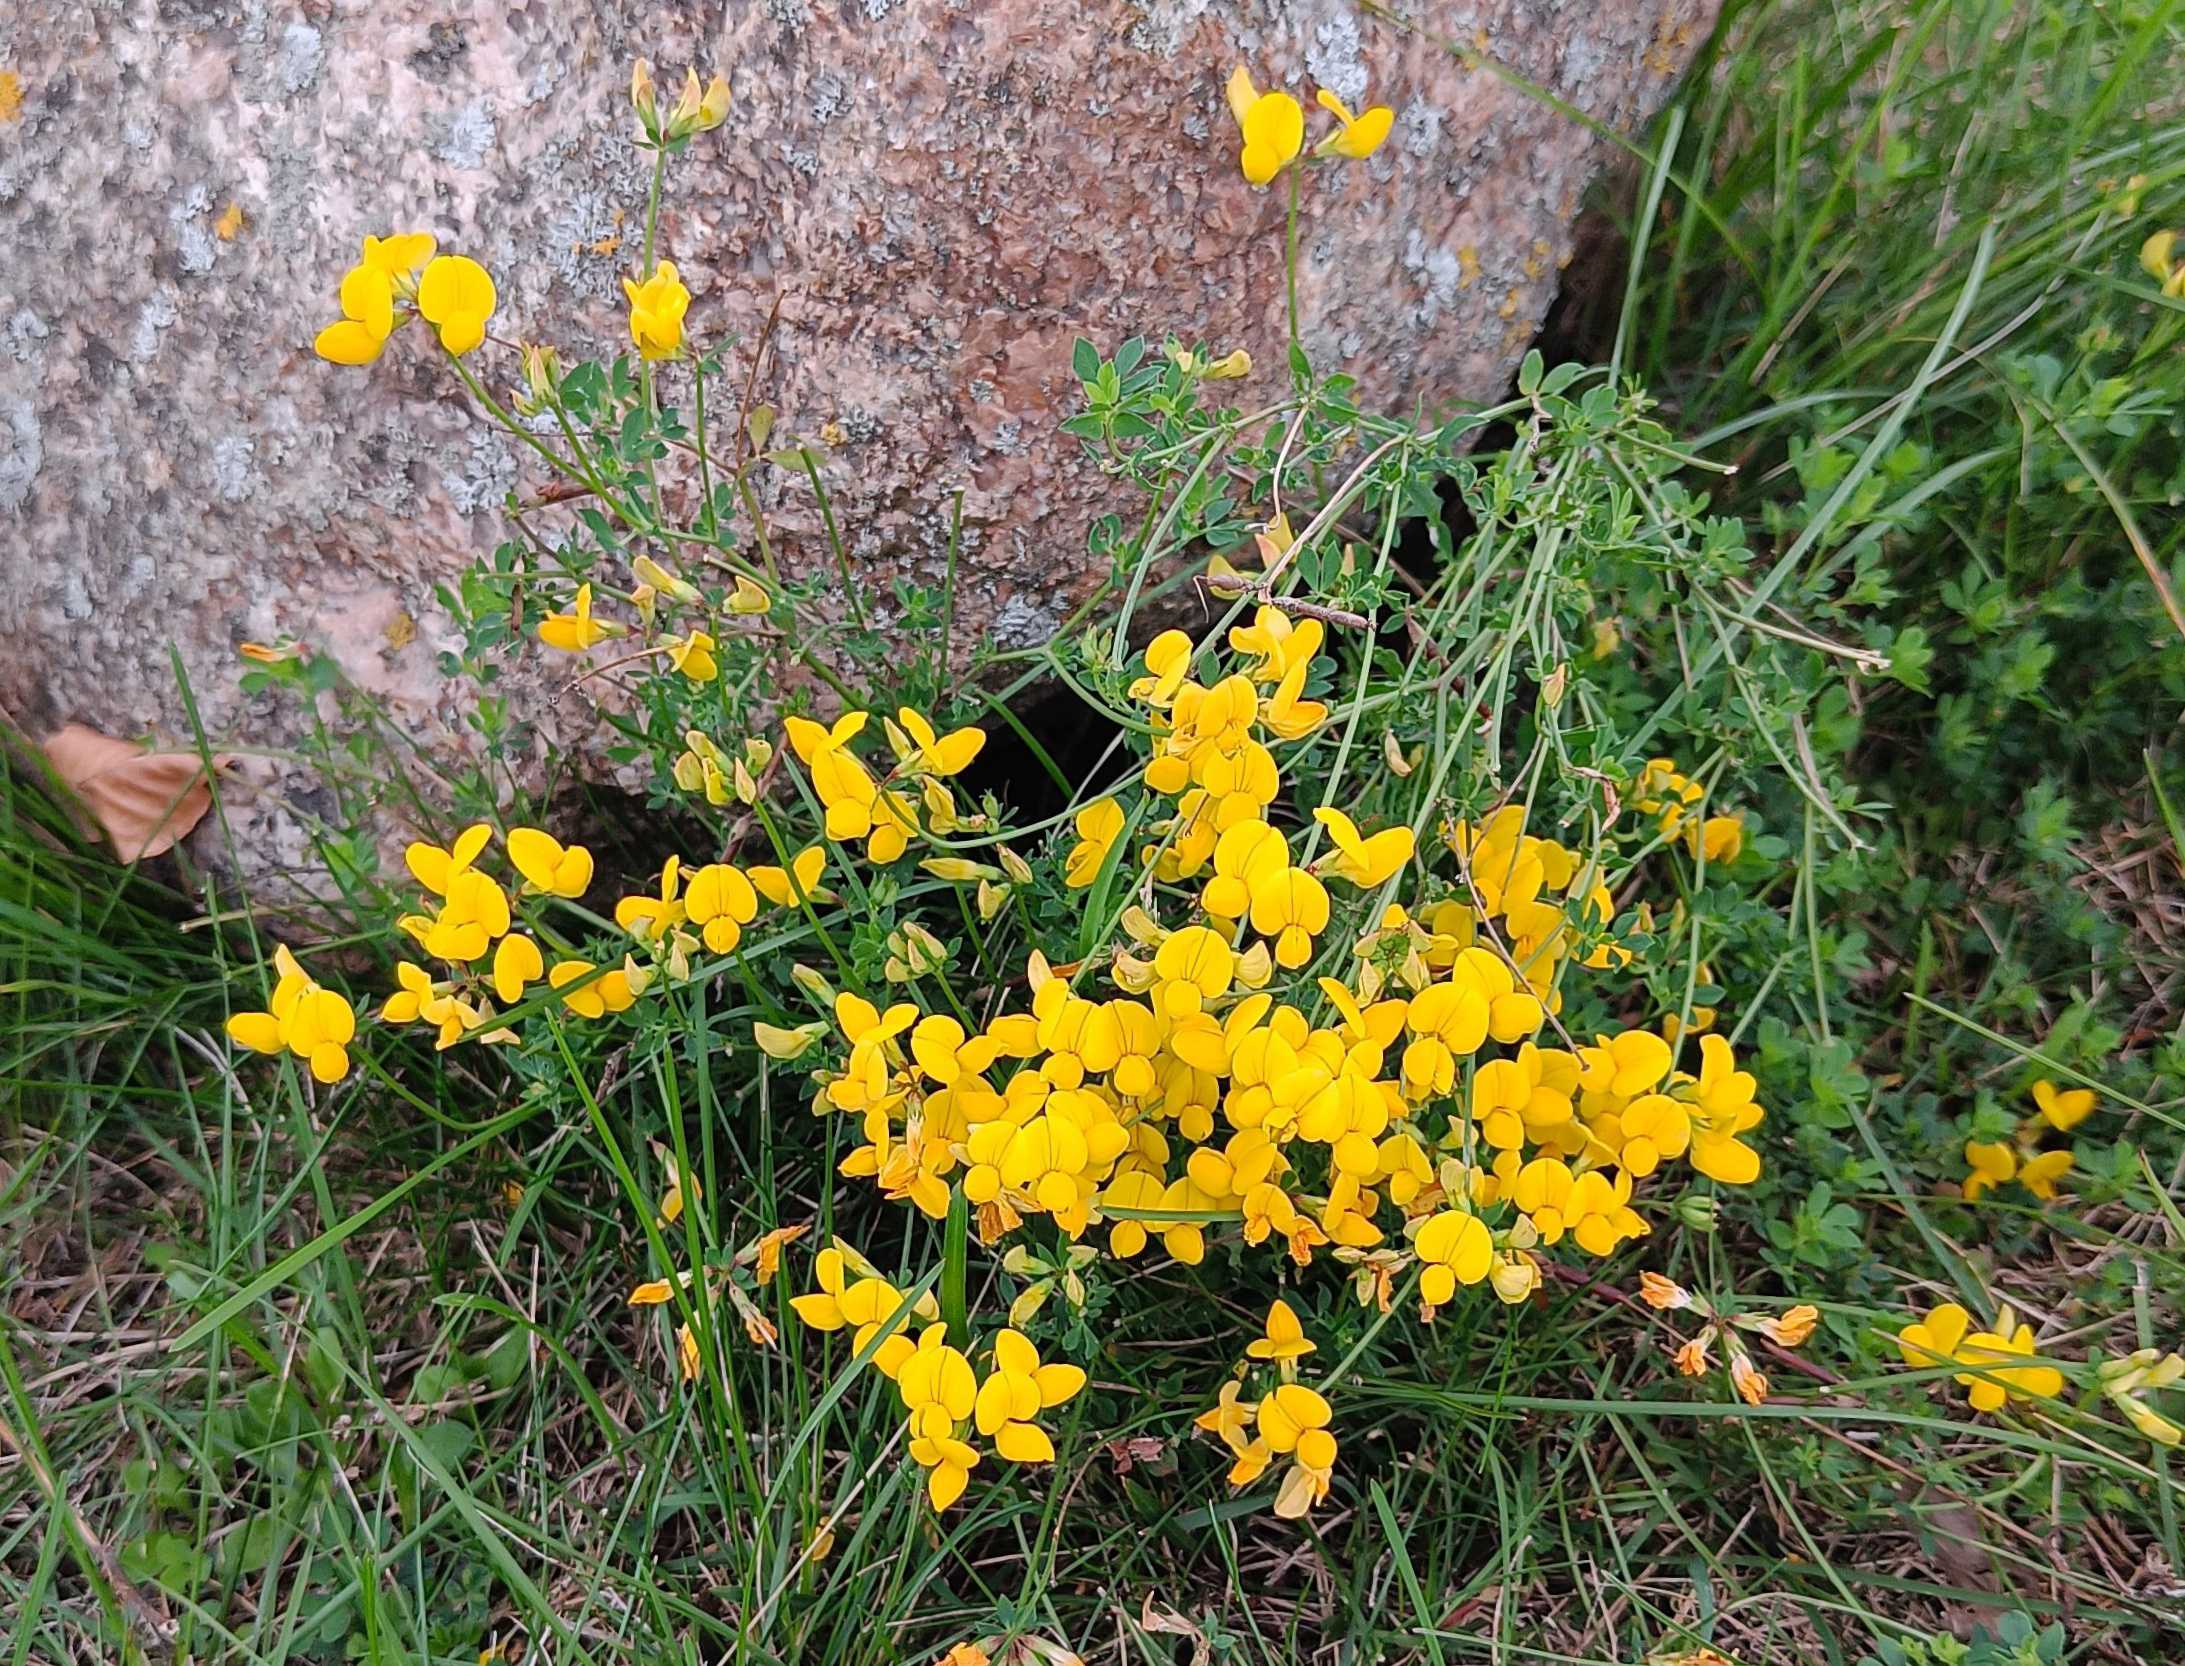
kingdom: Plantae
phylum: Tracheophyta
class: Magnoliopsida
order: Fabales
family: Fabaceae
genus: Lotus
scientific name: Lotus corniculatus
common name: Almindelig kællingetand
